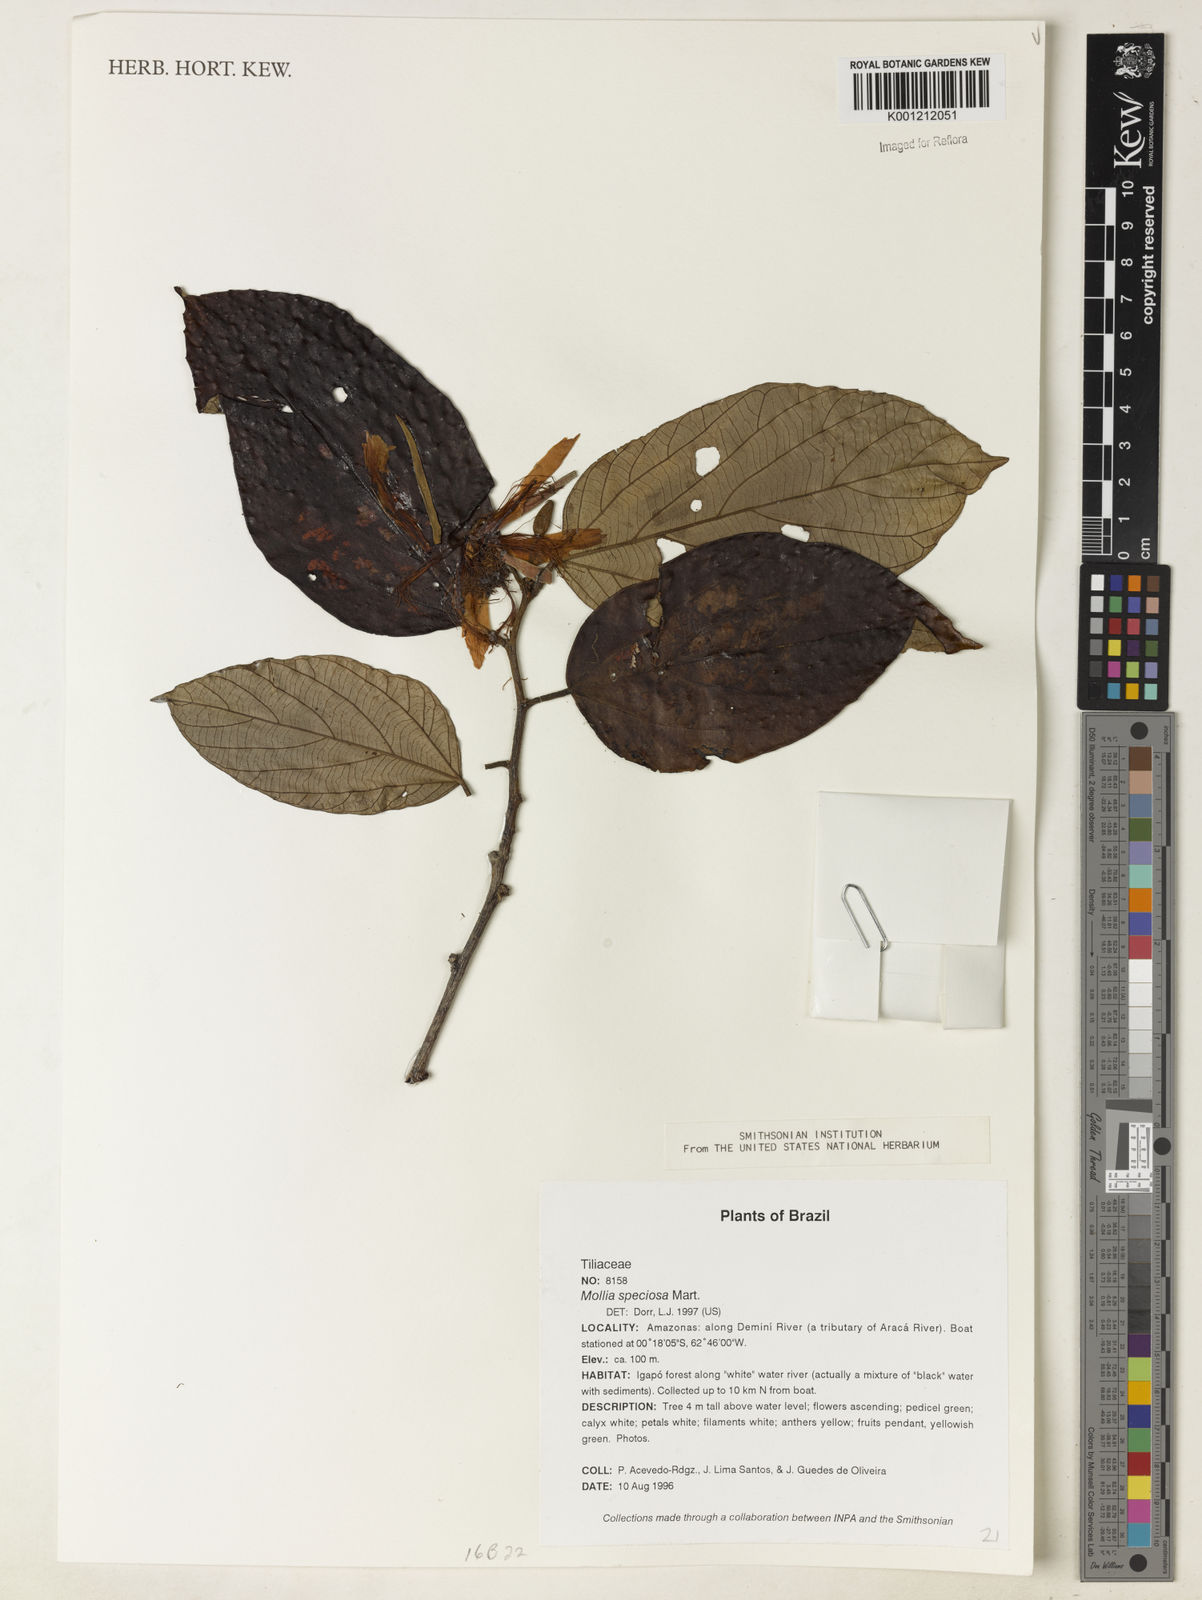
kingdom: Plantae
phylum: Tracheophyta
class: Magnoliopsida
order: Malvales
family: Malvaceae
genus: Mollia
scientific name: Mollia speciosa
